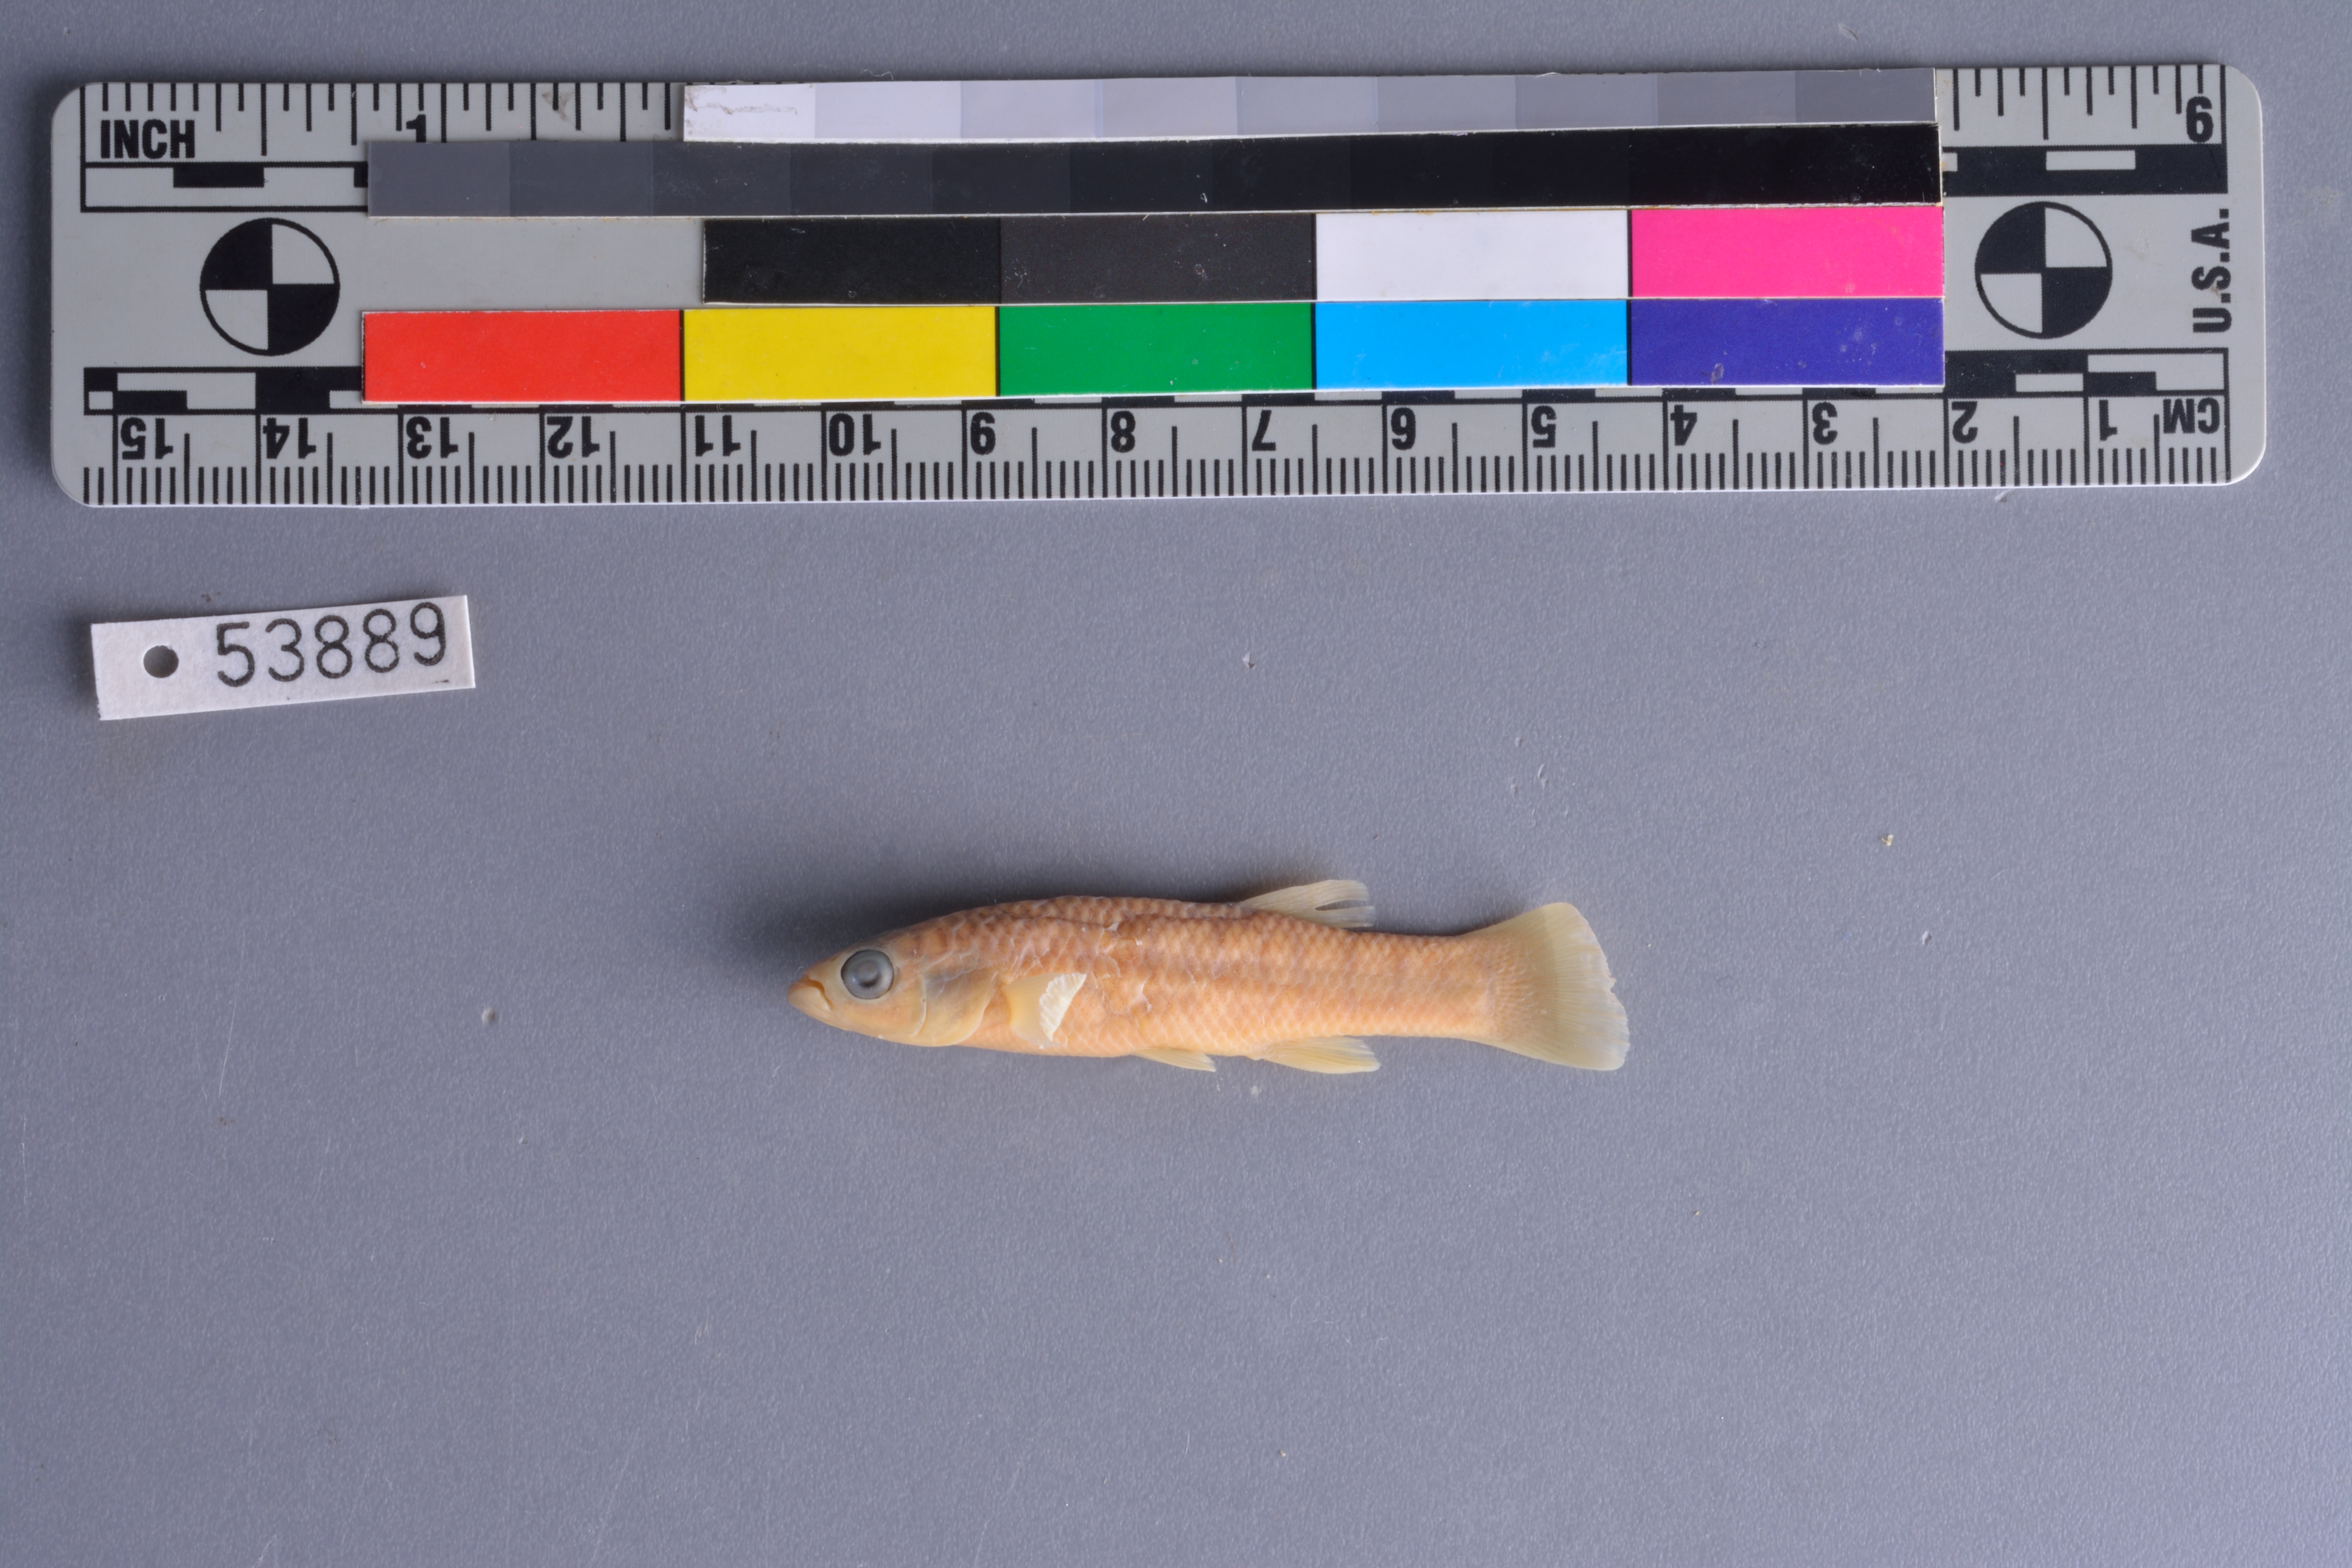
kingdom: Animalia
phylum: Chordata
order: Cyprinodontiformes
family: Fundulidae
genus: Fundulus
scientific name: Fundulus grandis
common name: Gulf killifish
